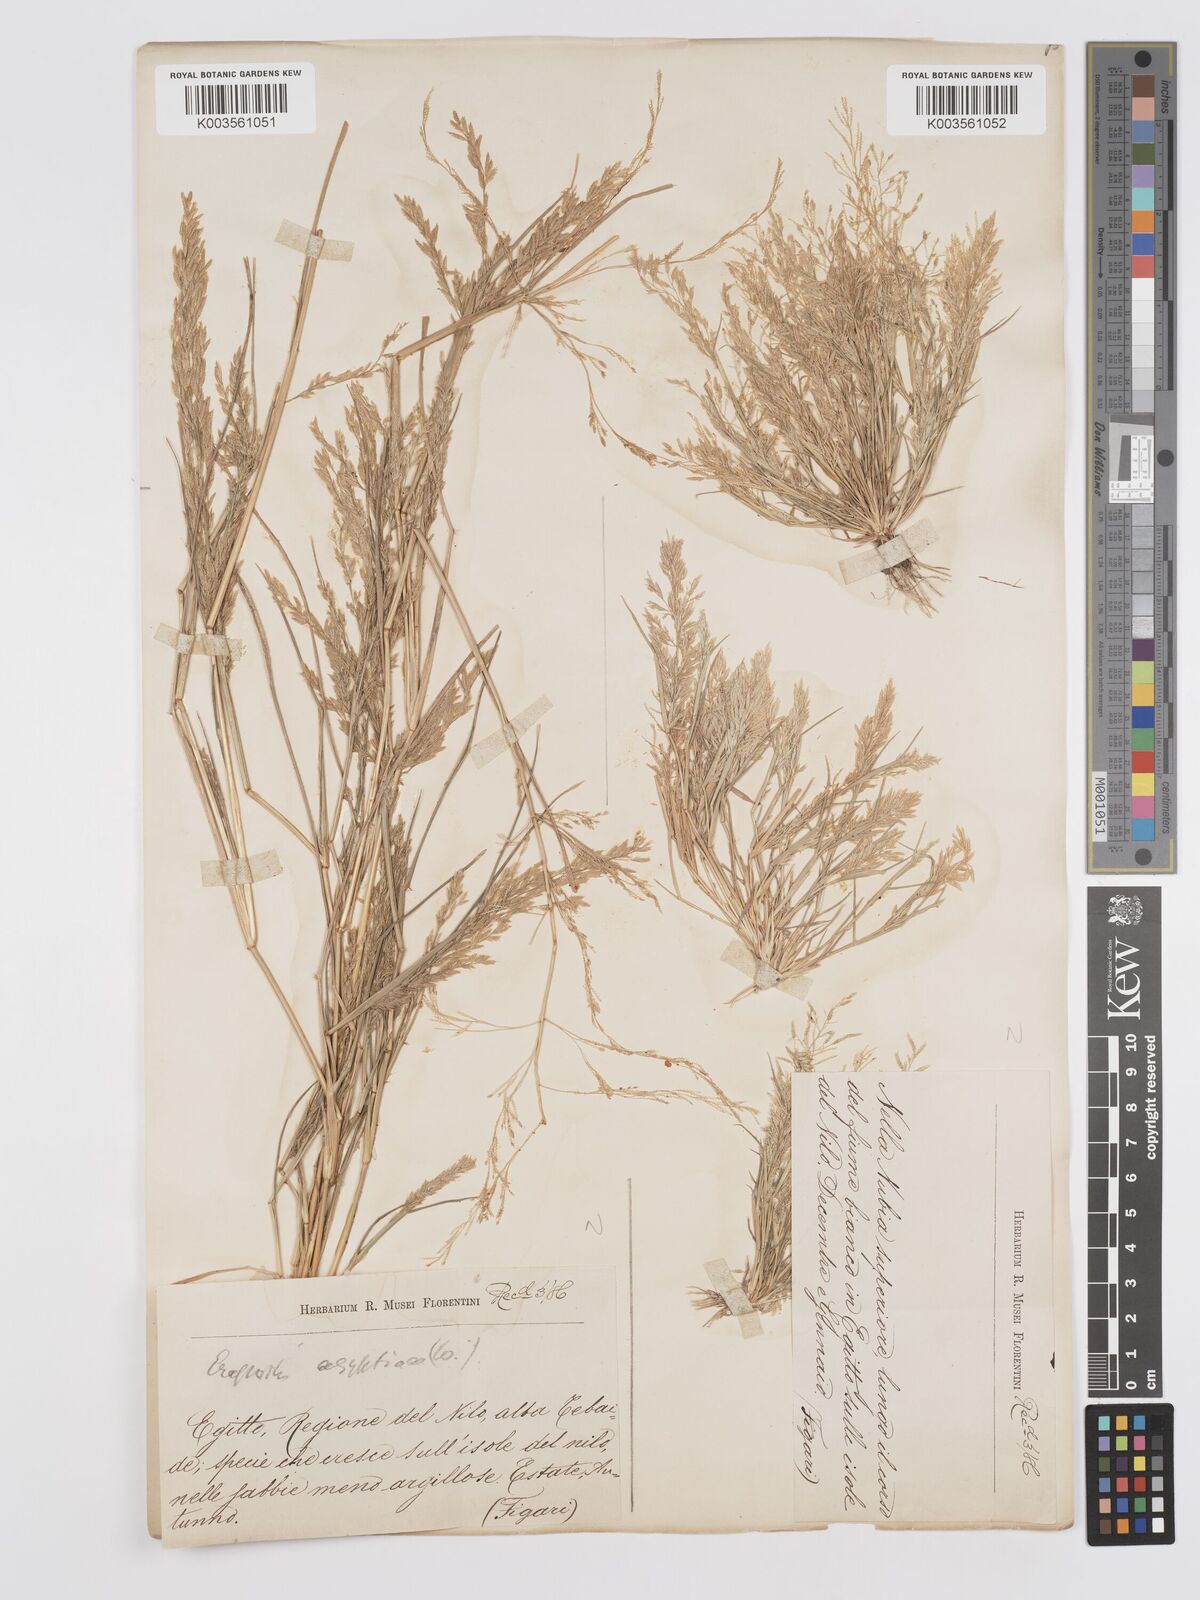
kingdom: Plantae
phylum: Tracheophyta
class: Liliopsida
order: Poales
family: Poaceae
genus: Eragrostis
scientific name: Eragrostis aegyptiaca
